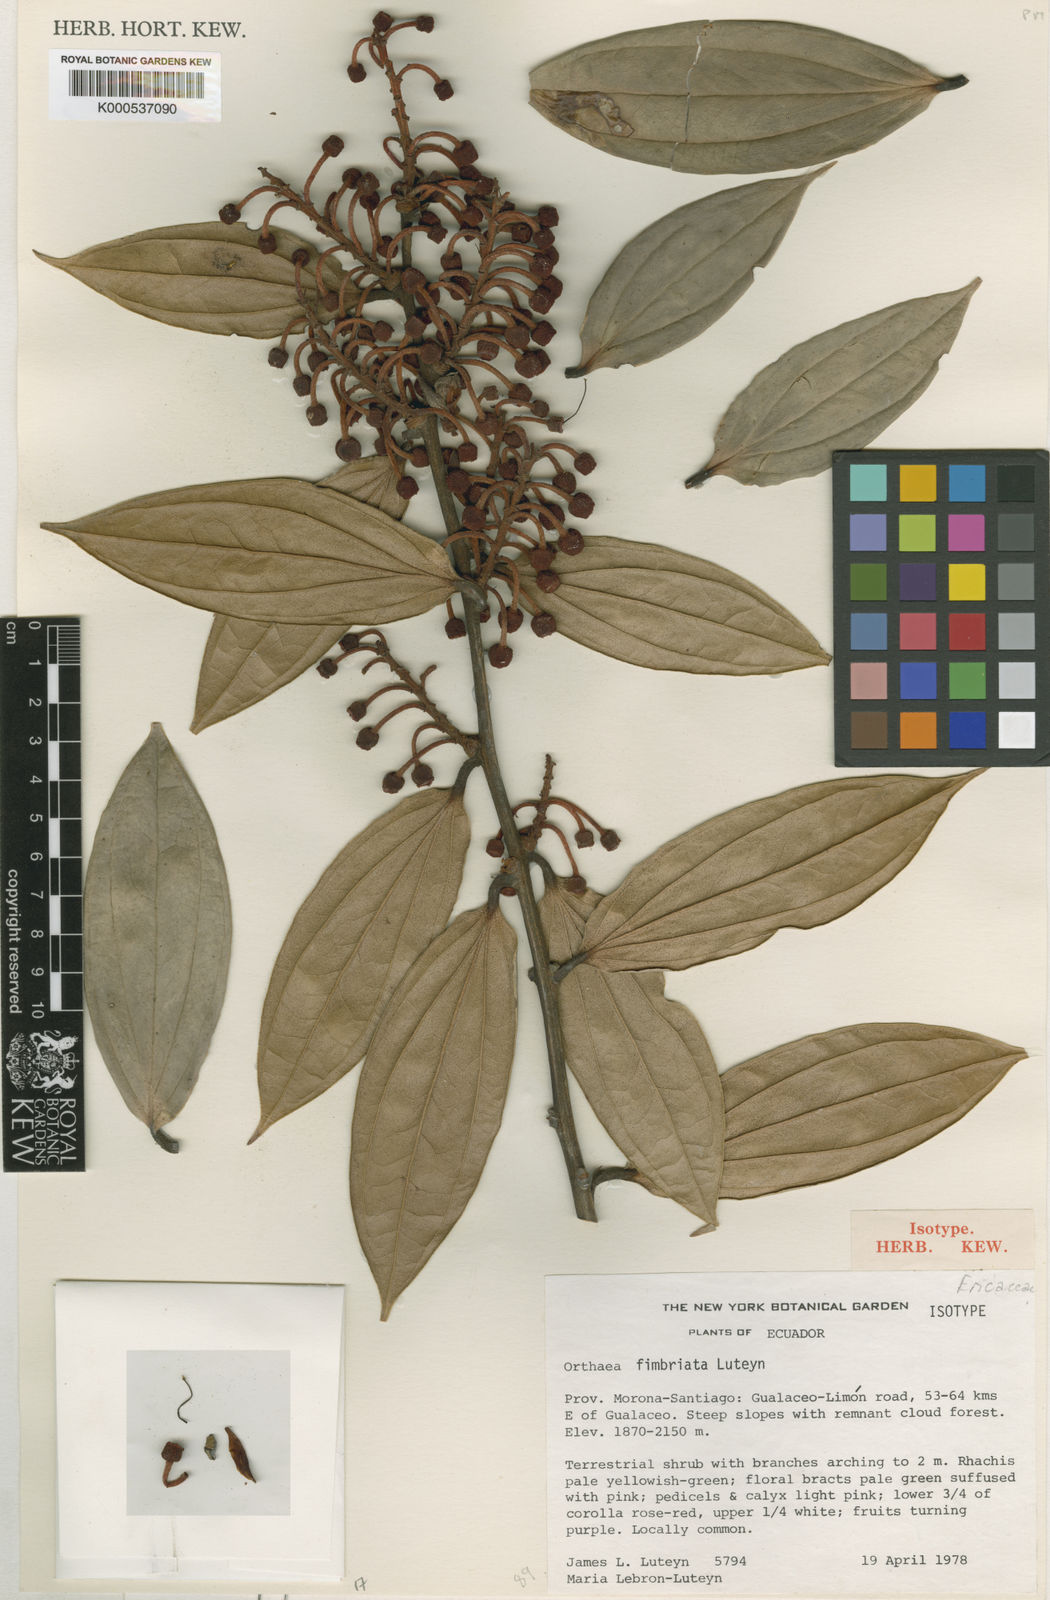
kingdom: Plantae
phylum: Tracheophyta
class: Magnoliopsida
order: Ericales
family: Ericaceae
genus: Orthaea
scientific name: Orthaea fimbriata
